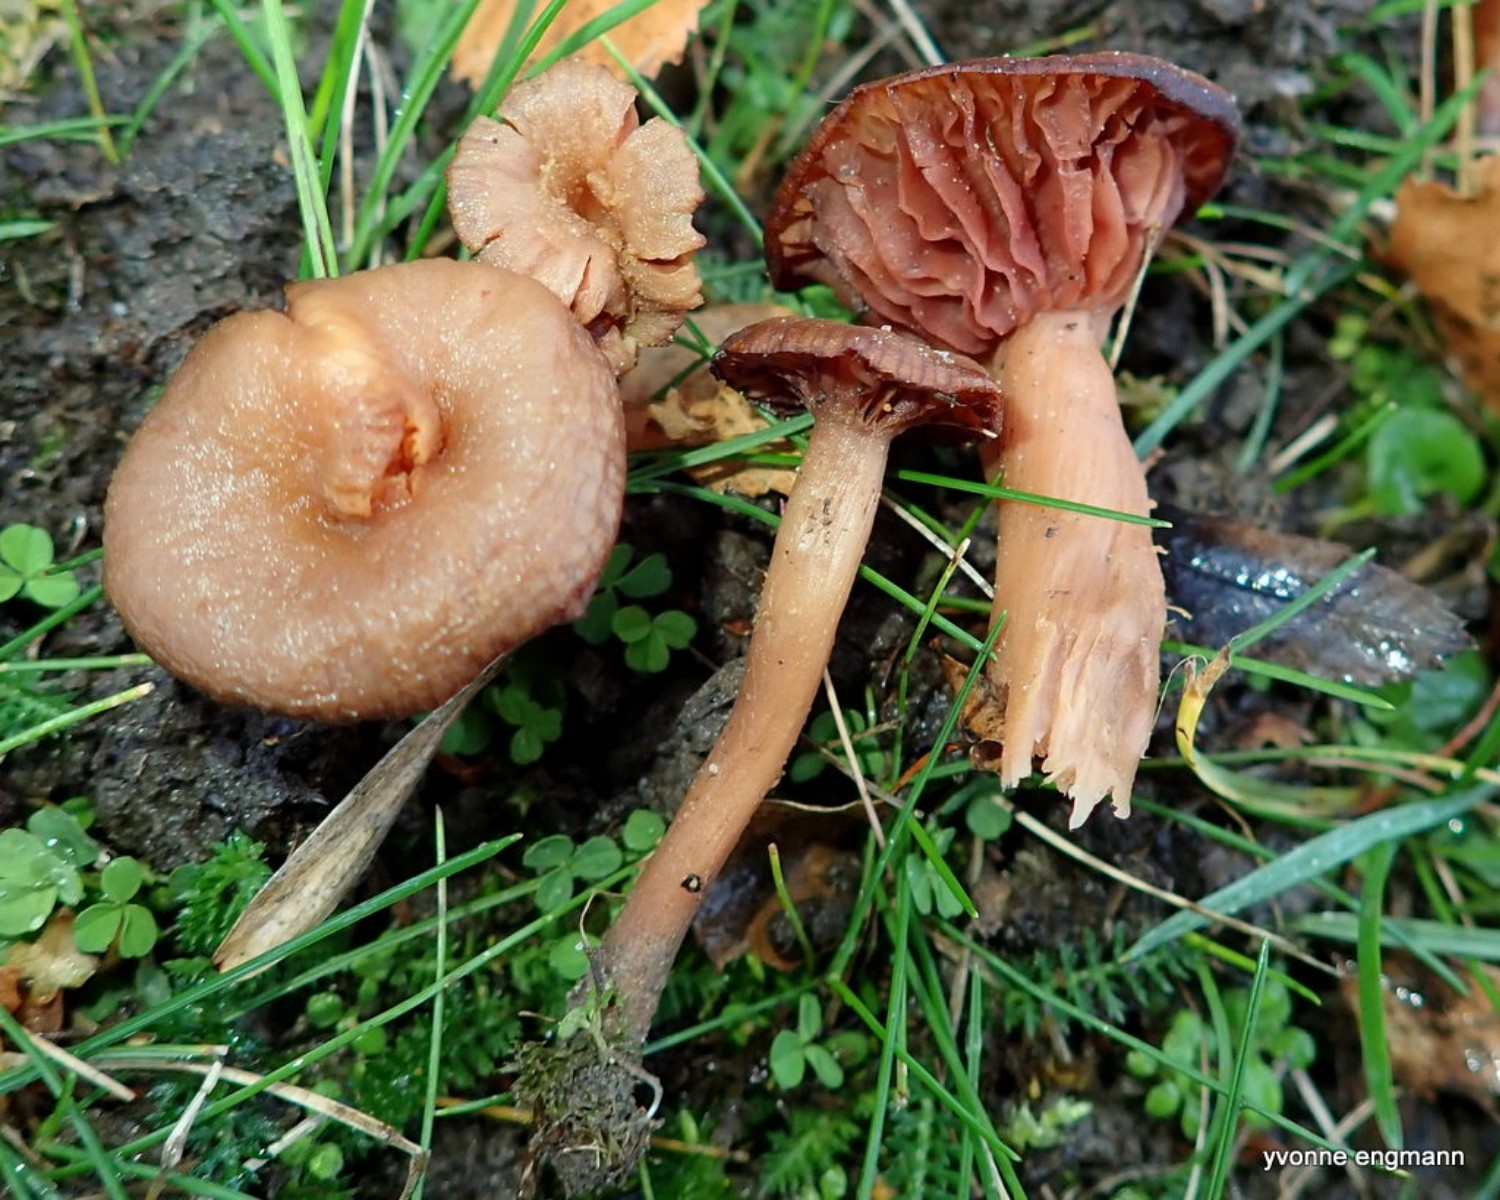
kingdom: Fungi
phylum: Basidiomycota
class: Agaricomycetes
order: Agaricales
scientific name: Agaricales
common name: champignonordenen
